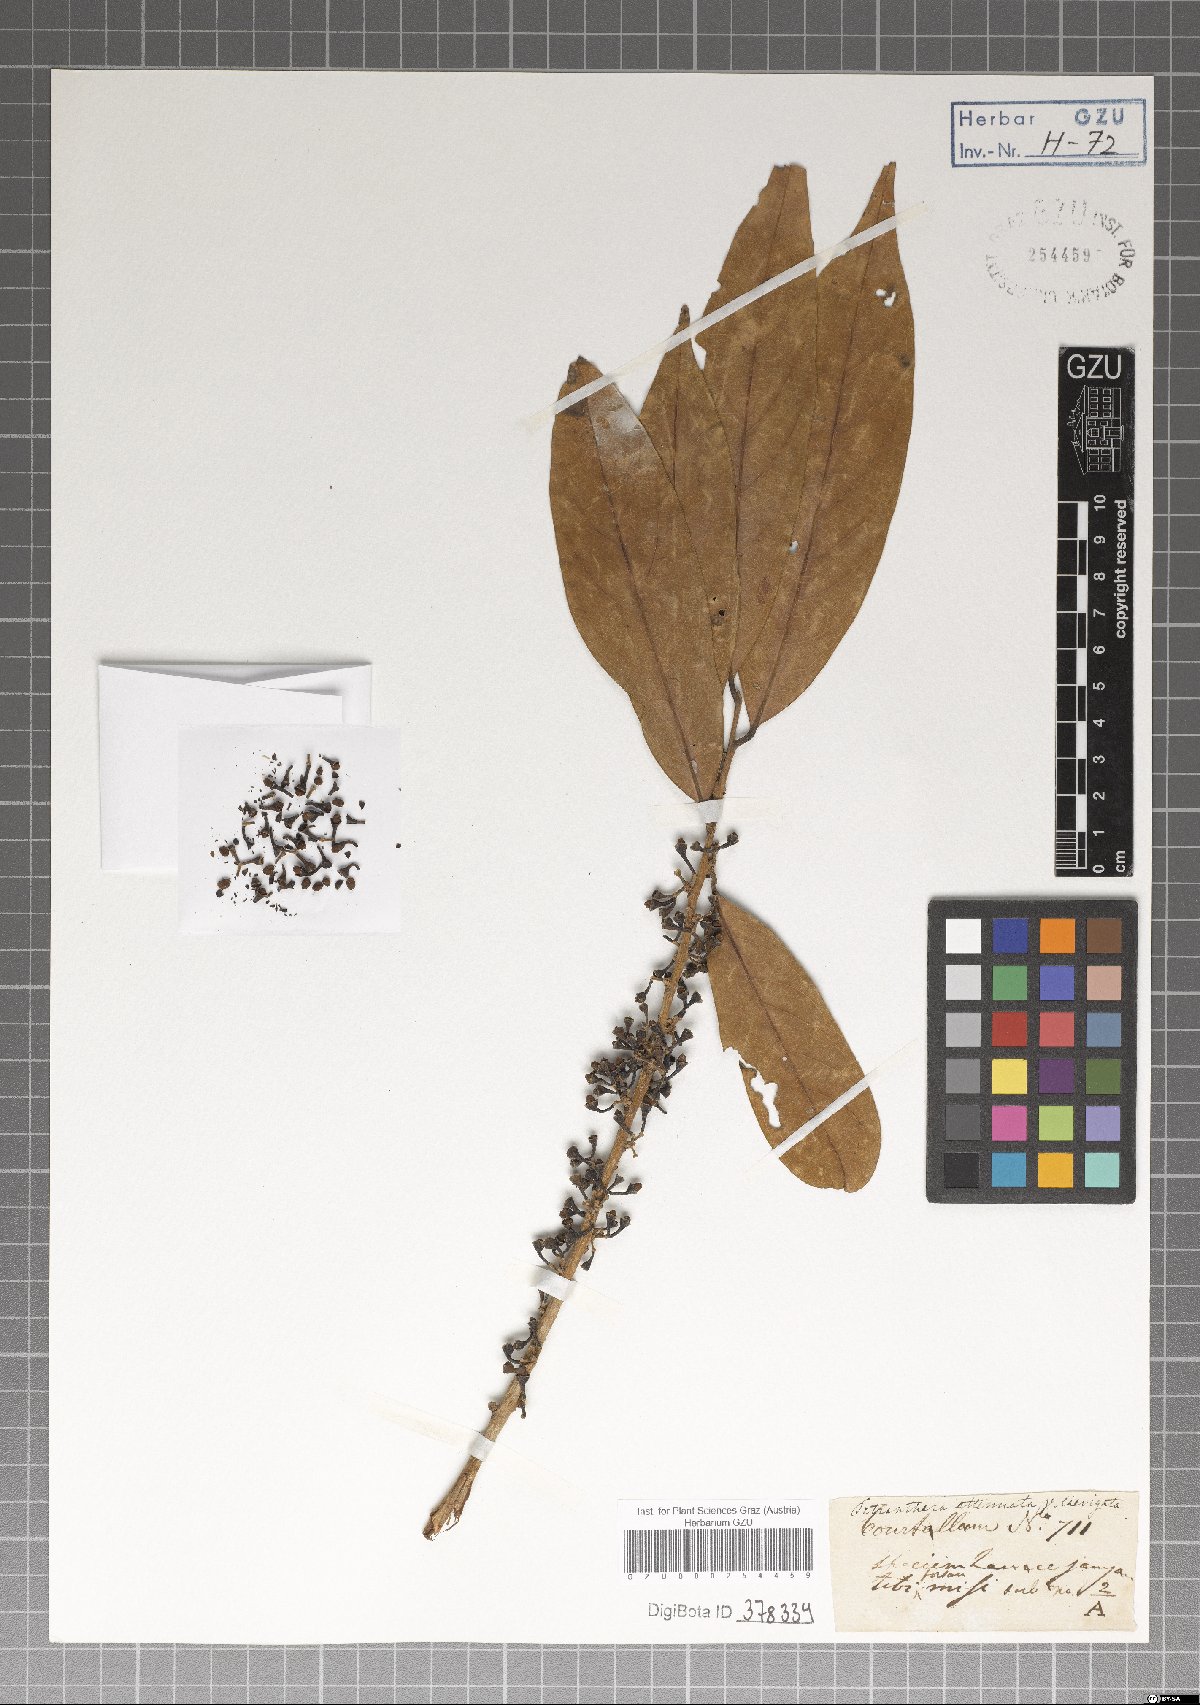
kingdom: Plantae
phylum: Tracheophyta
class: Magnoliopsida
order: Laurales
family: Lauraceae
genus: Litsea
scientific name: Litsea salicifolia
